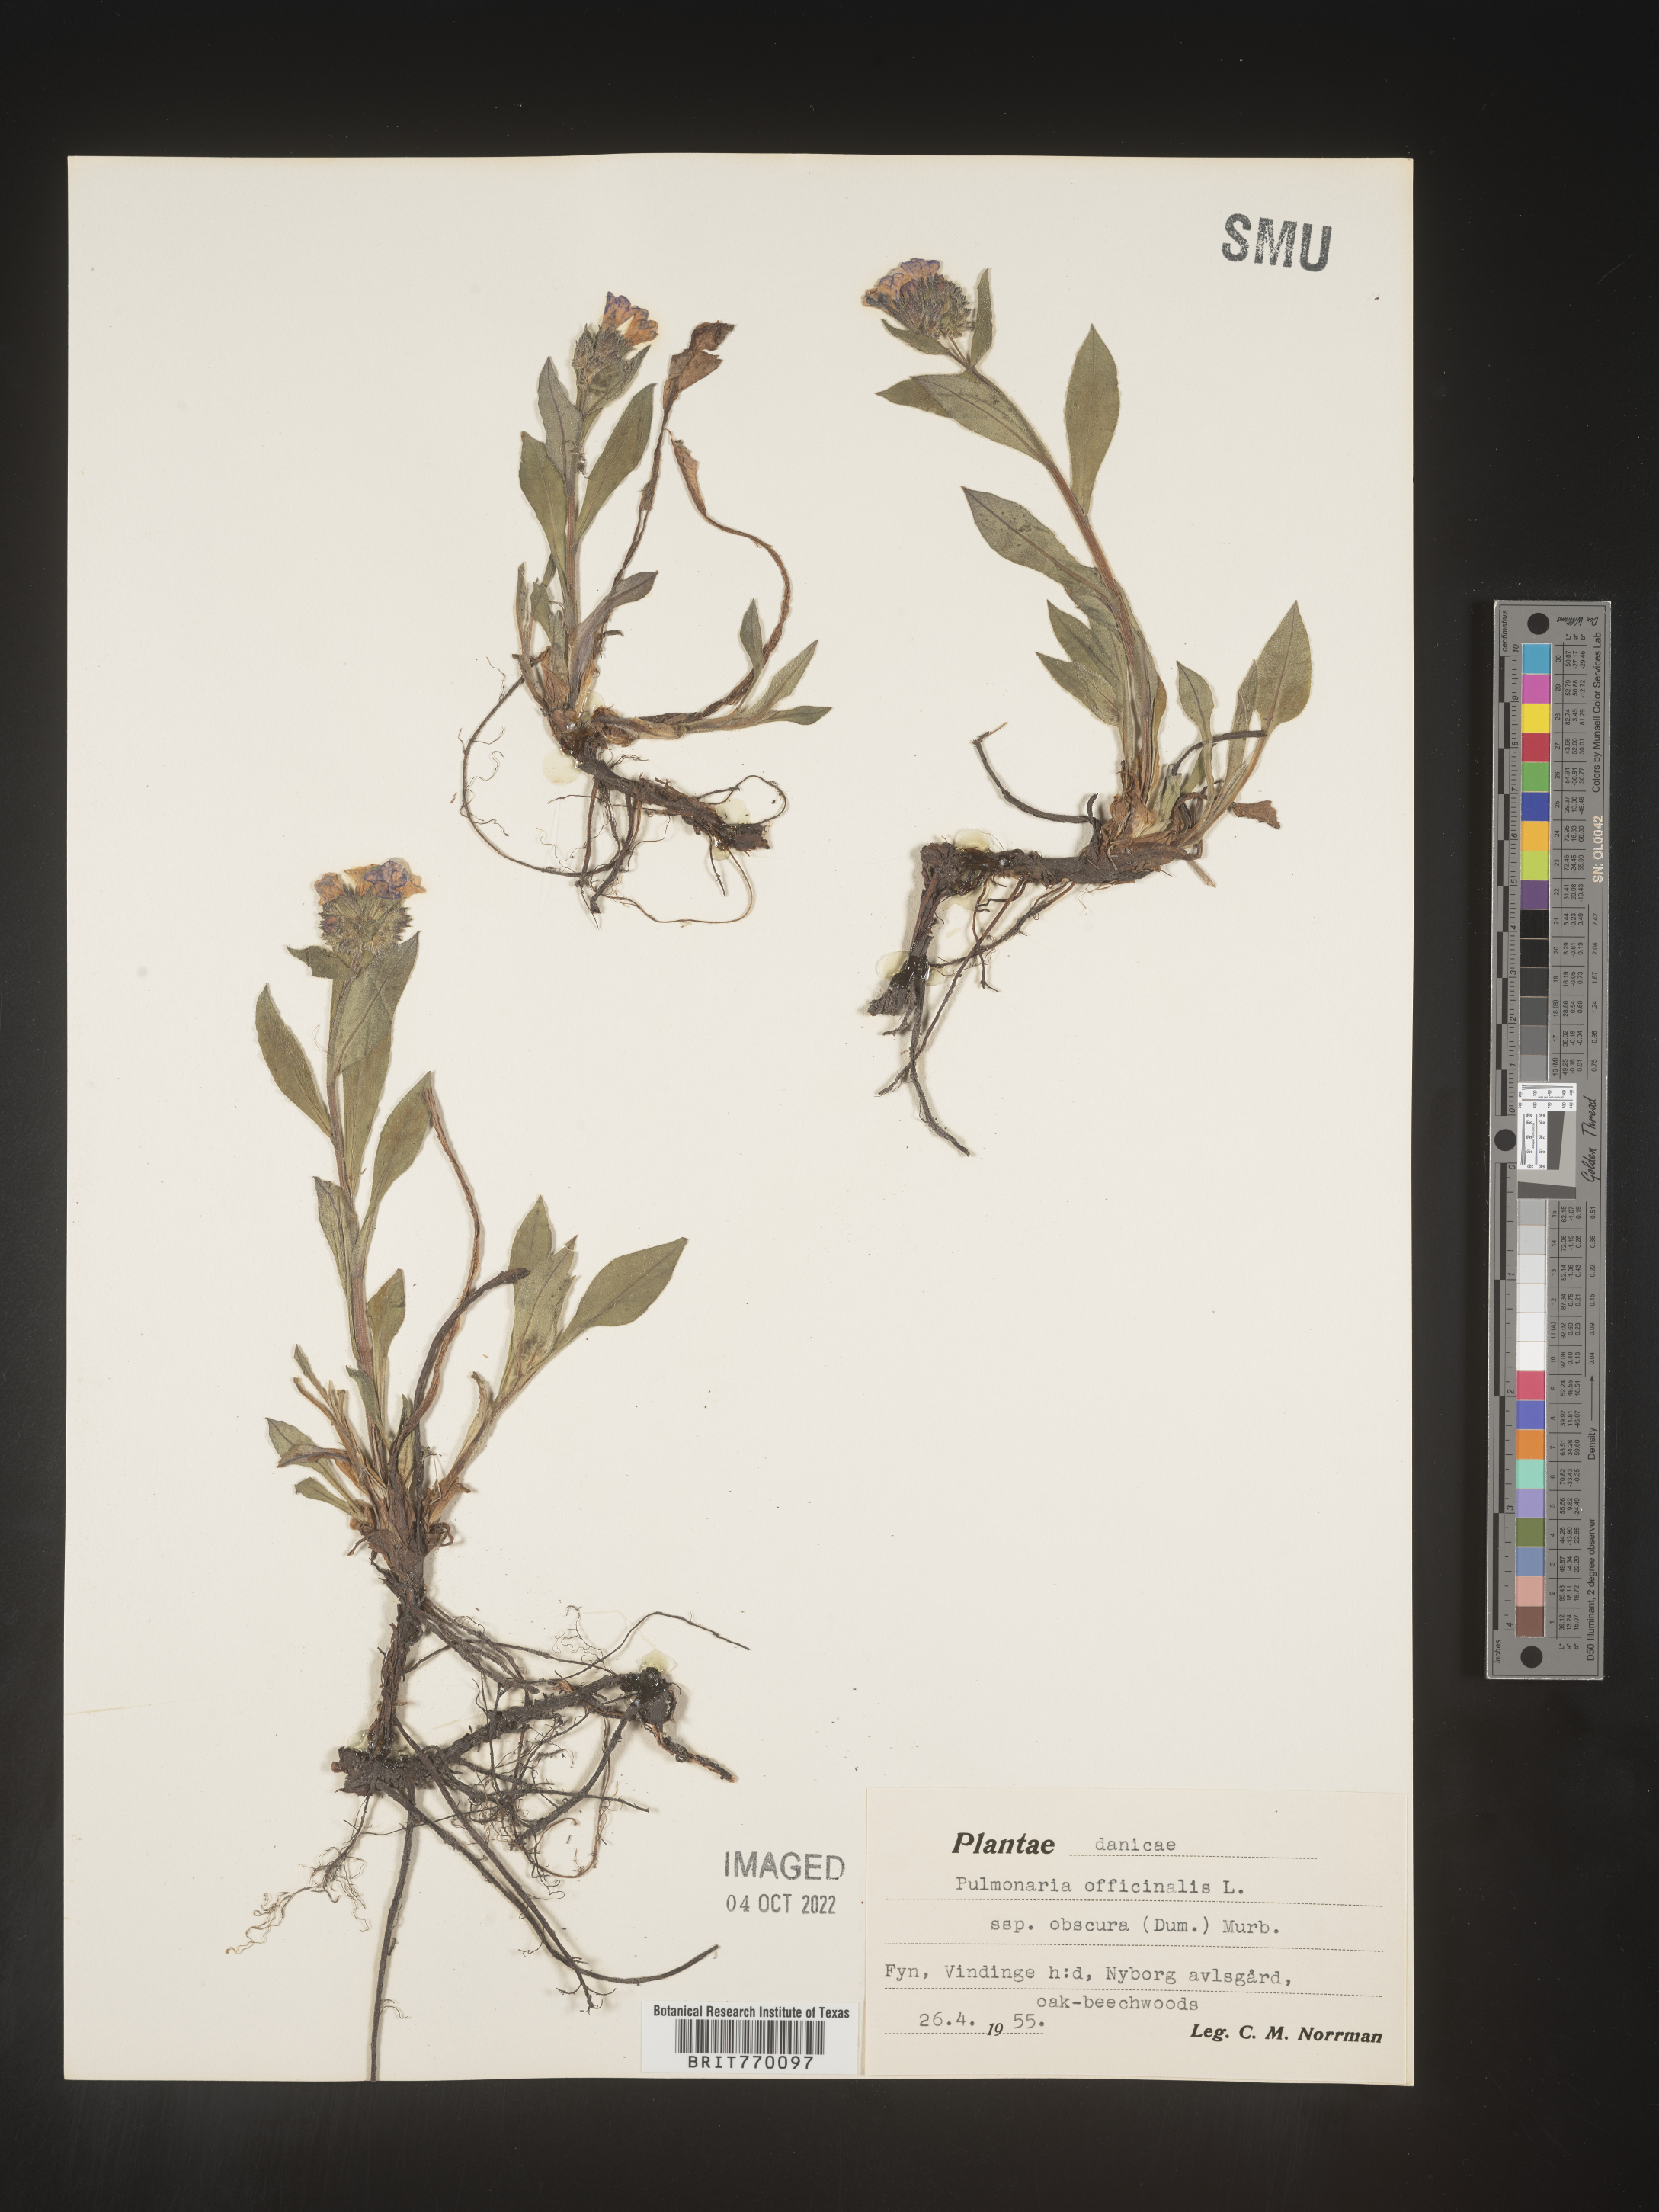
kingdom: Plantae
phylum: Tracheophyta
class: Magnoliopsida
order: Boraginales
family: Boraginaceae
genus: Pulmonaria
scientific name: Pulmonaria
